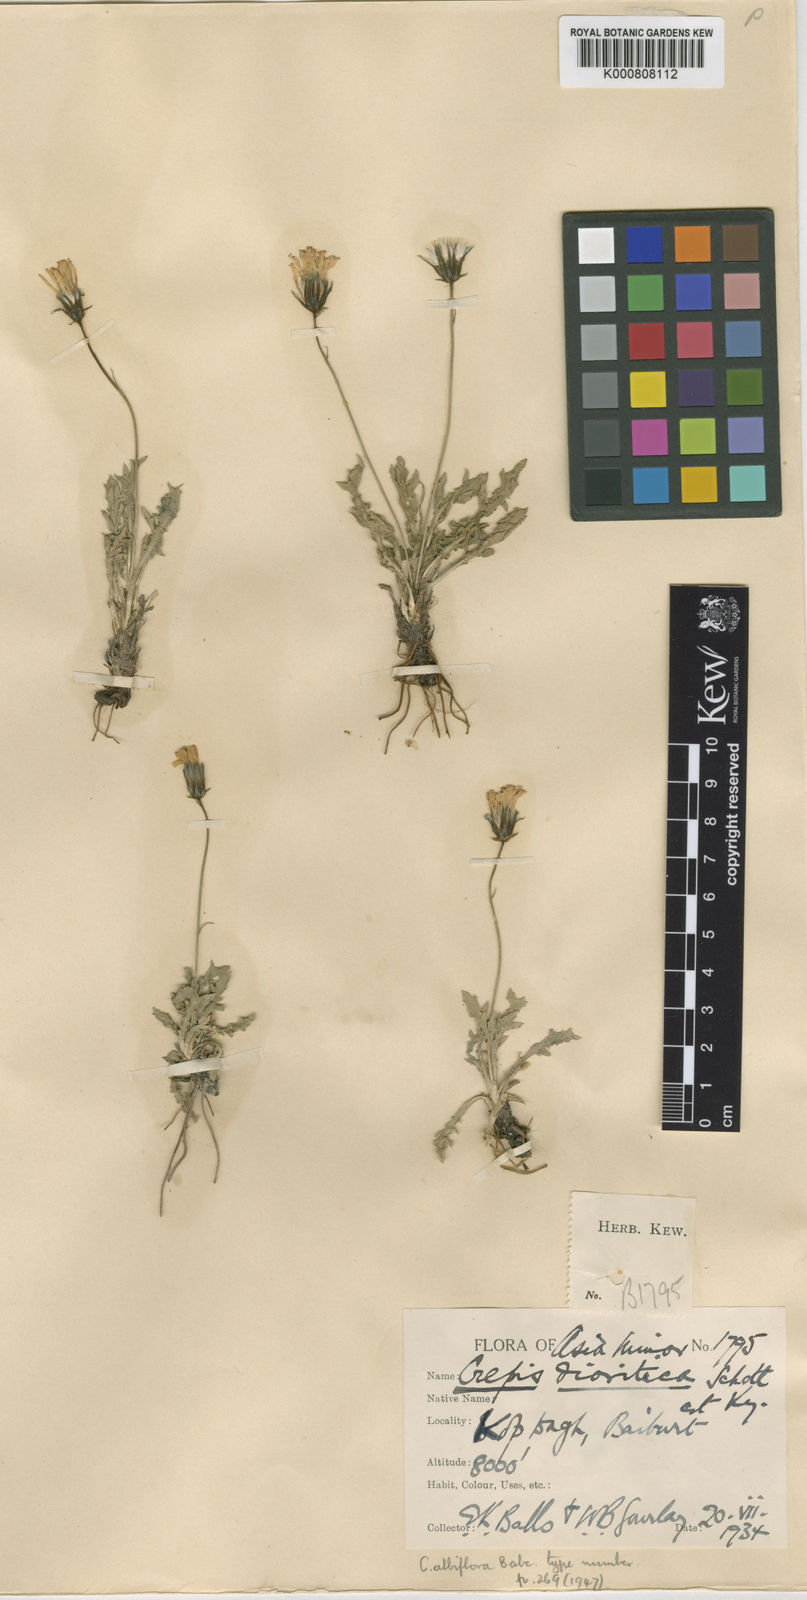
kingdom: Plantae
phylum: Tracheophyta
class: Magnoliopsida
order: Asterales
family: Asteraceae
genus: Crepis
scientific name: Crepis dioritica
